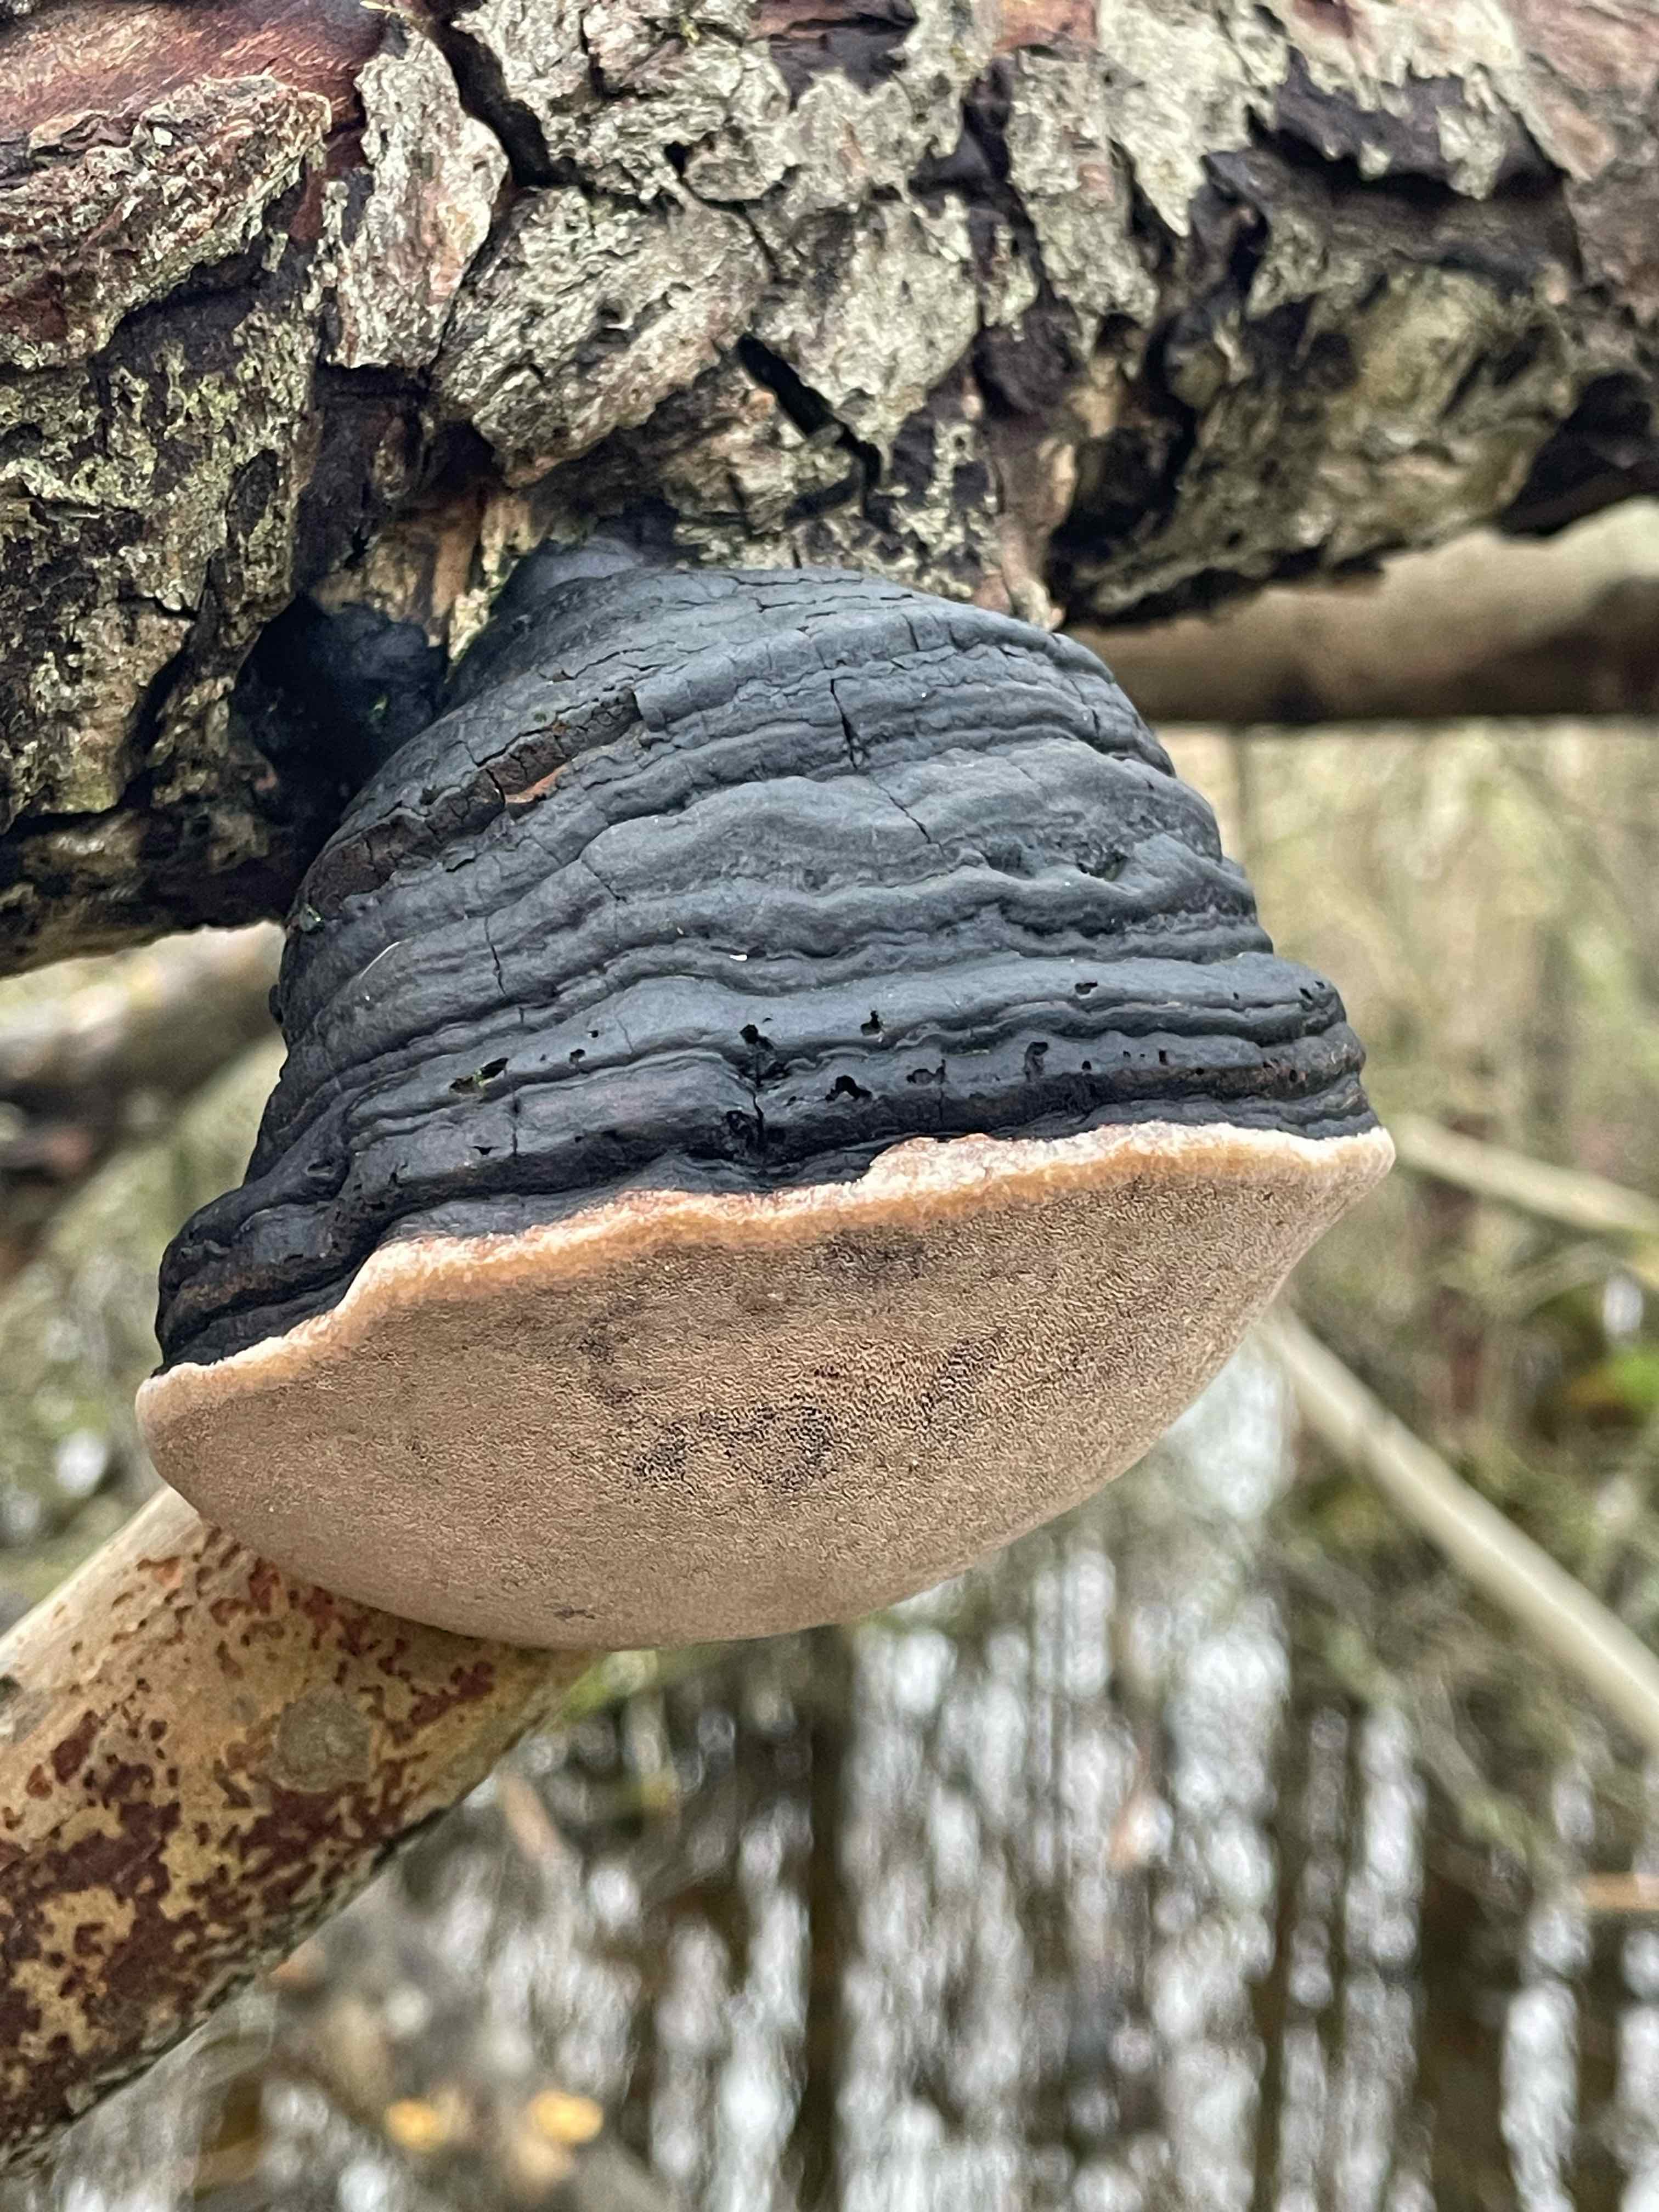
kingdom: Fungi
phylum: Basidiomycota
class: Agaricomycetes
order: Hymenochaetales
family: Hymenochaetaceae
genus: Phellinus
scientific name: Phellinus igniarius
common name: almindelig ildporesvamp
